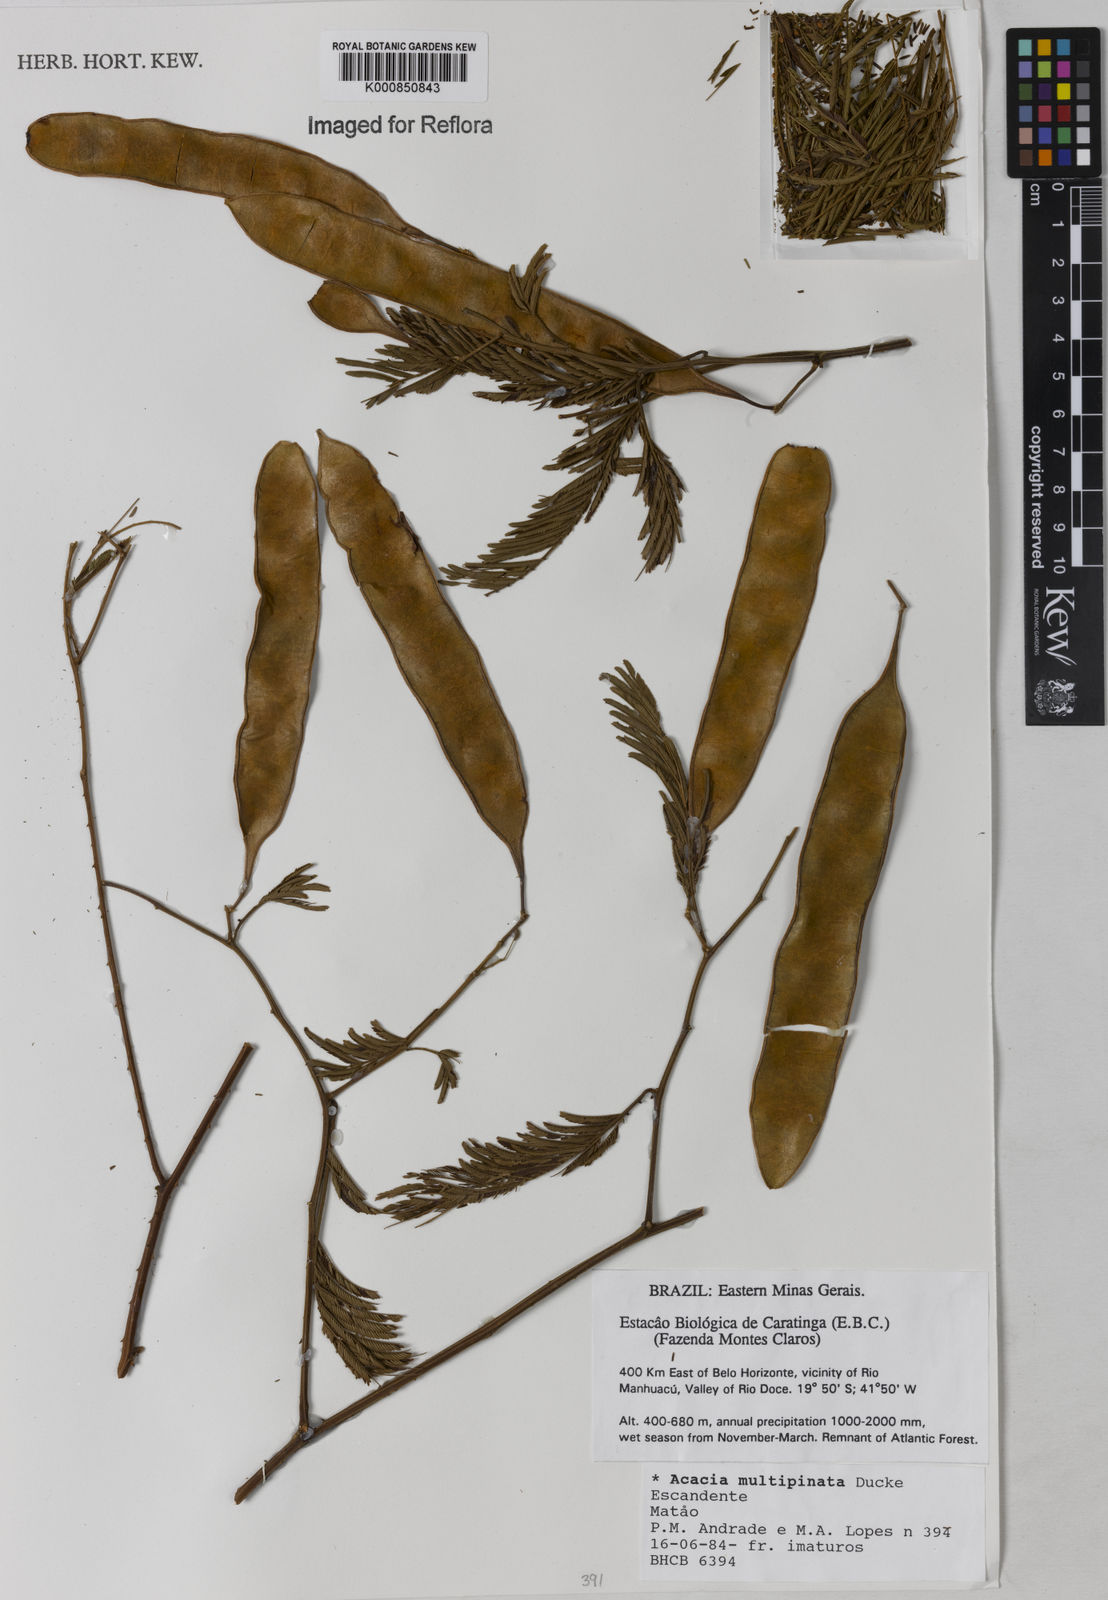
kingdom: Plantae
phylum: Tracheophyta
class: Magnoliopsida
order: Fabales
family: Fabaceae
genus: Senegalia
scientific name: Senegalia paniculata
